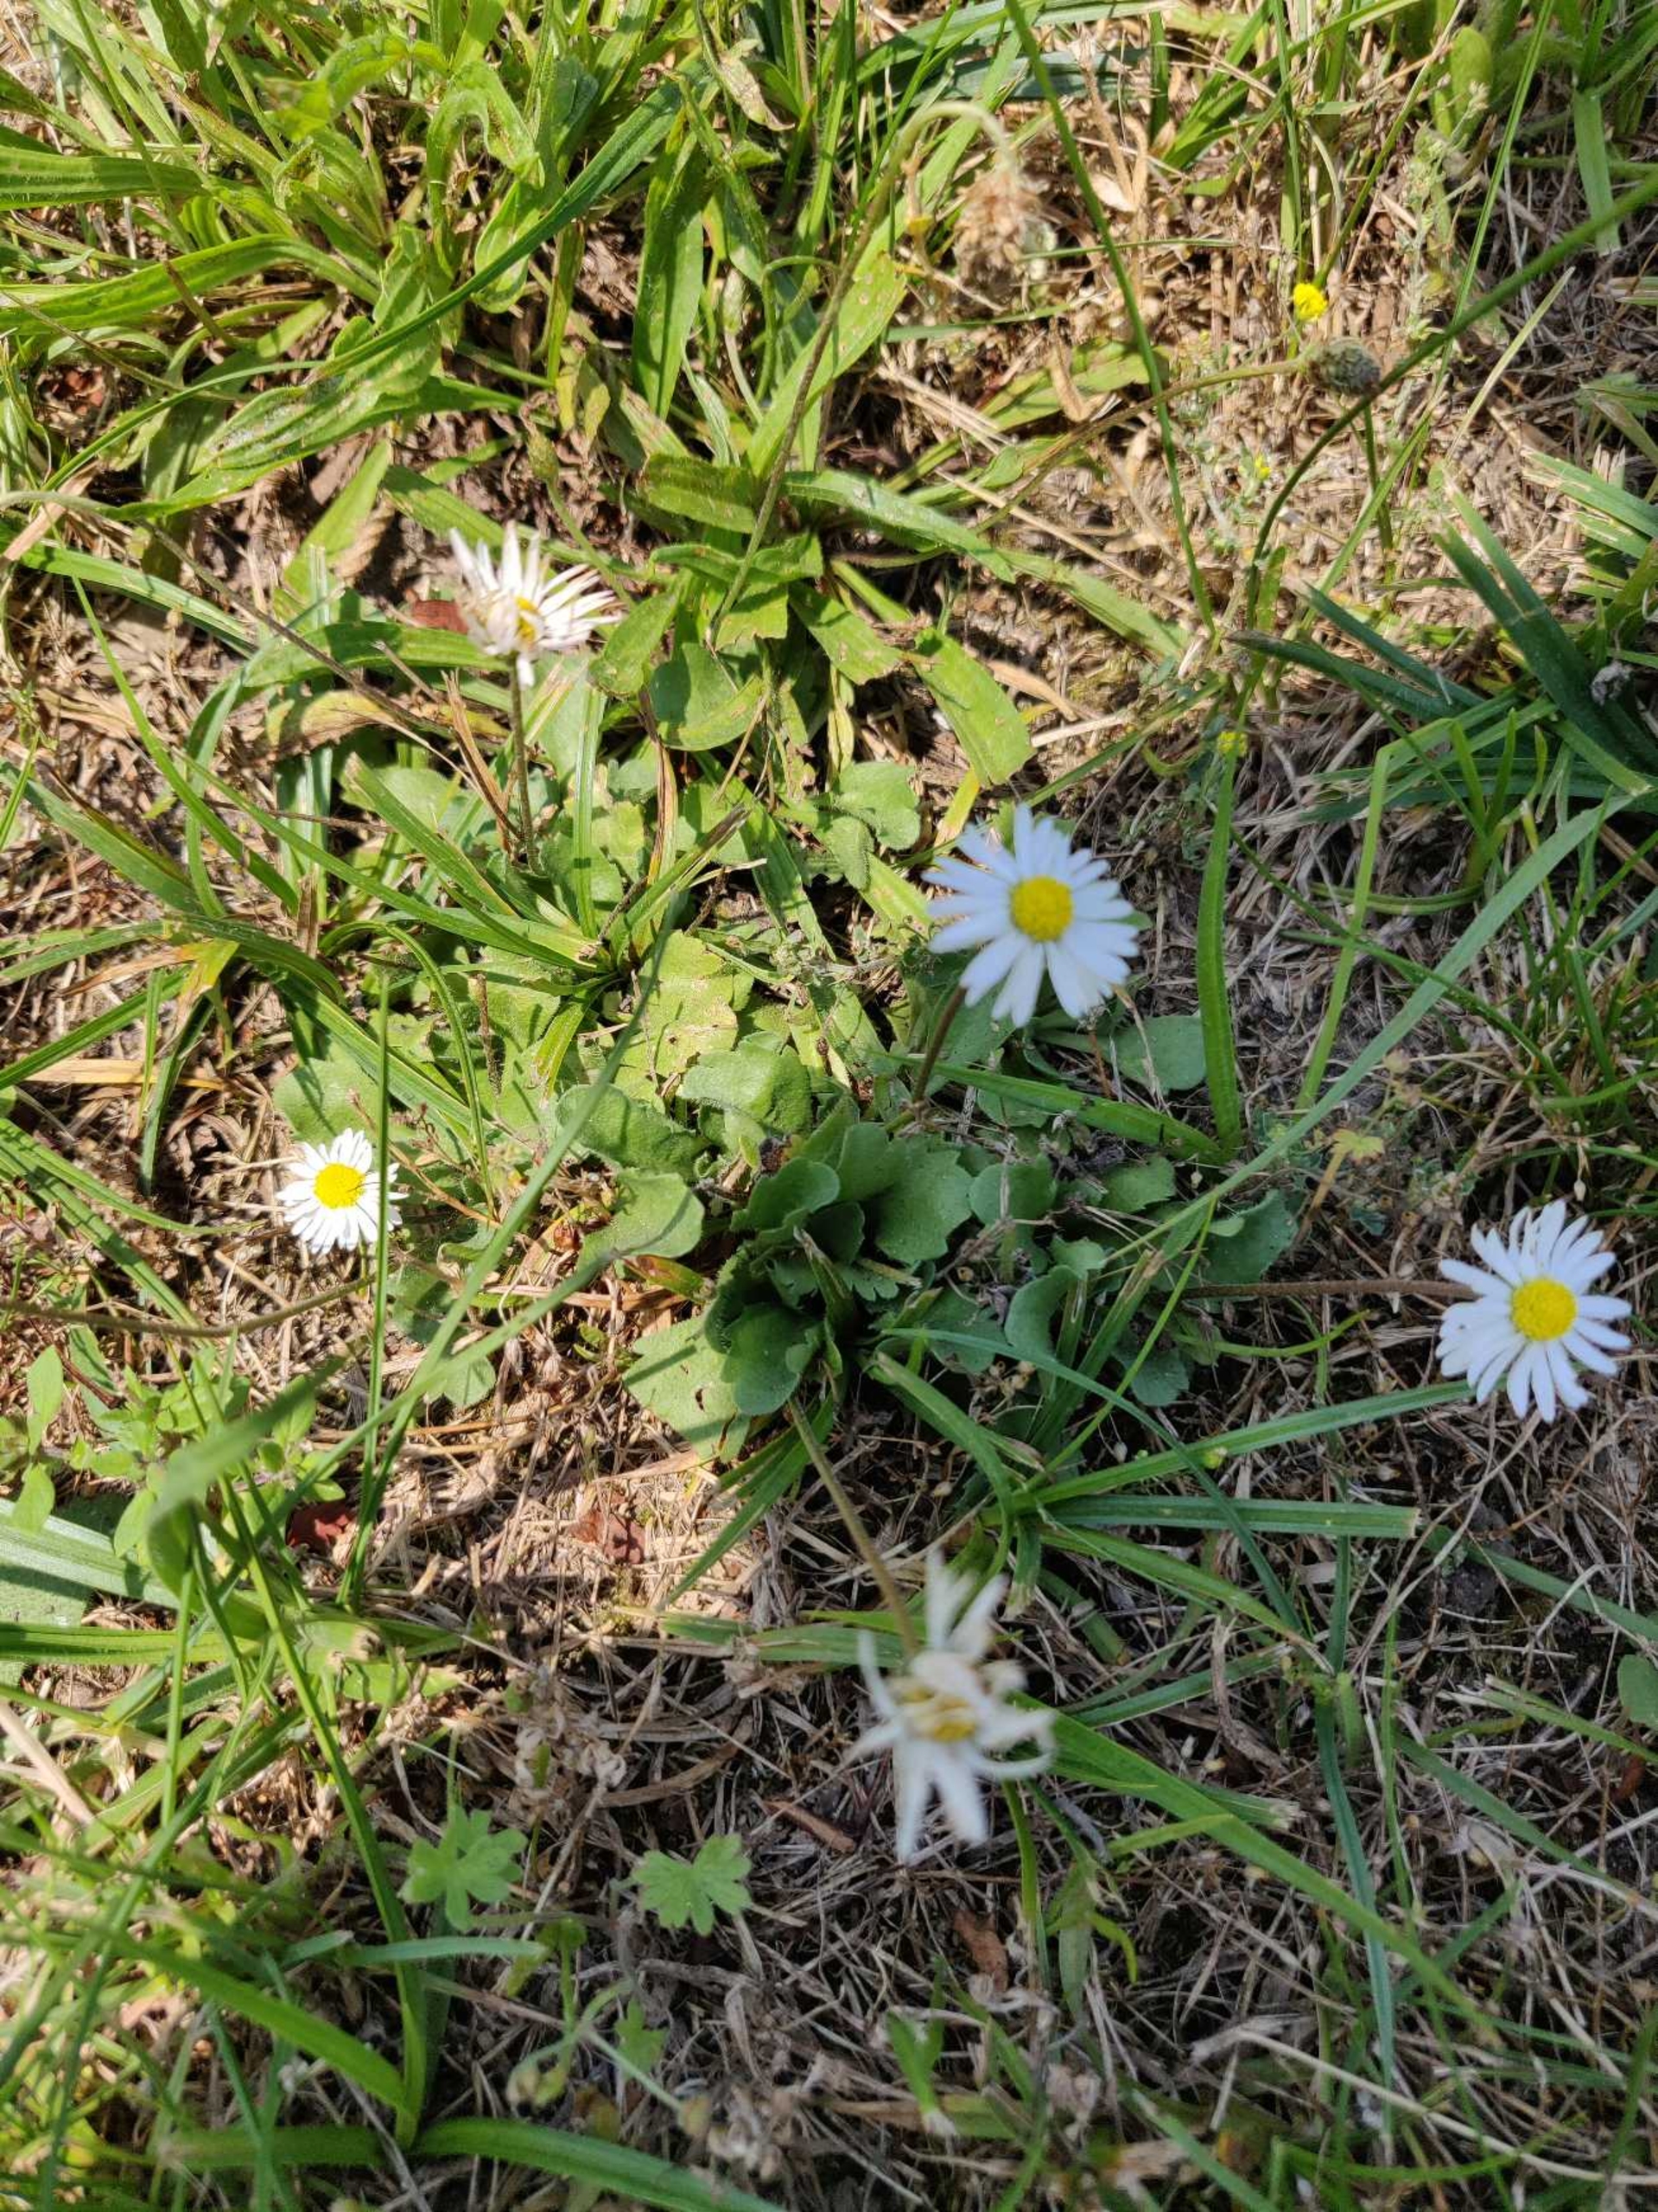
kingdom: Plantae
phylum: Tracheophyta
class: Magnoliopsida
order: Asterales
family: Asteraceae
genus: Bellis
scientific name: Bellis perennis
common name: Tusindfryd
